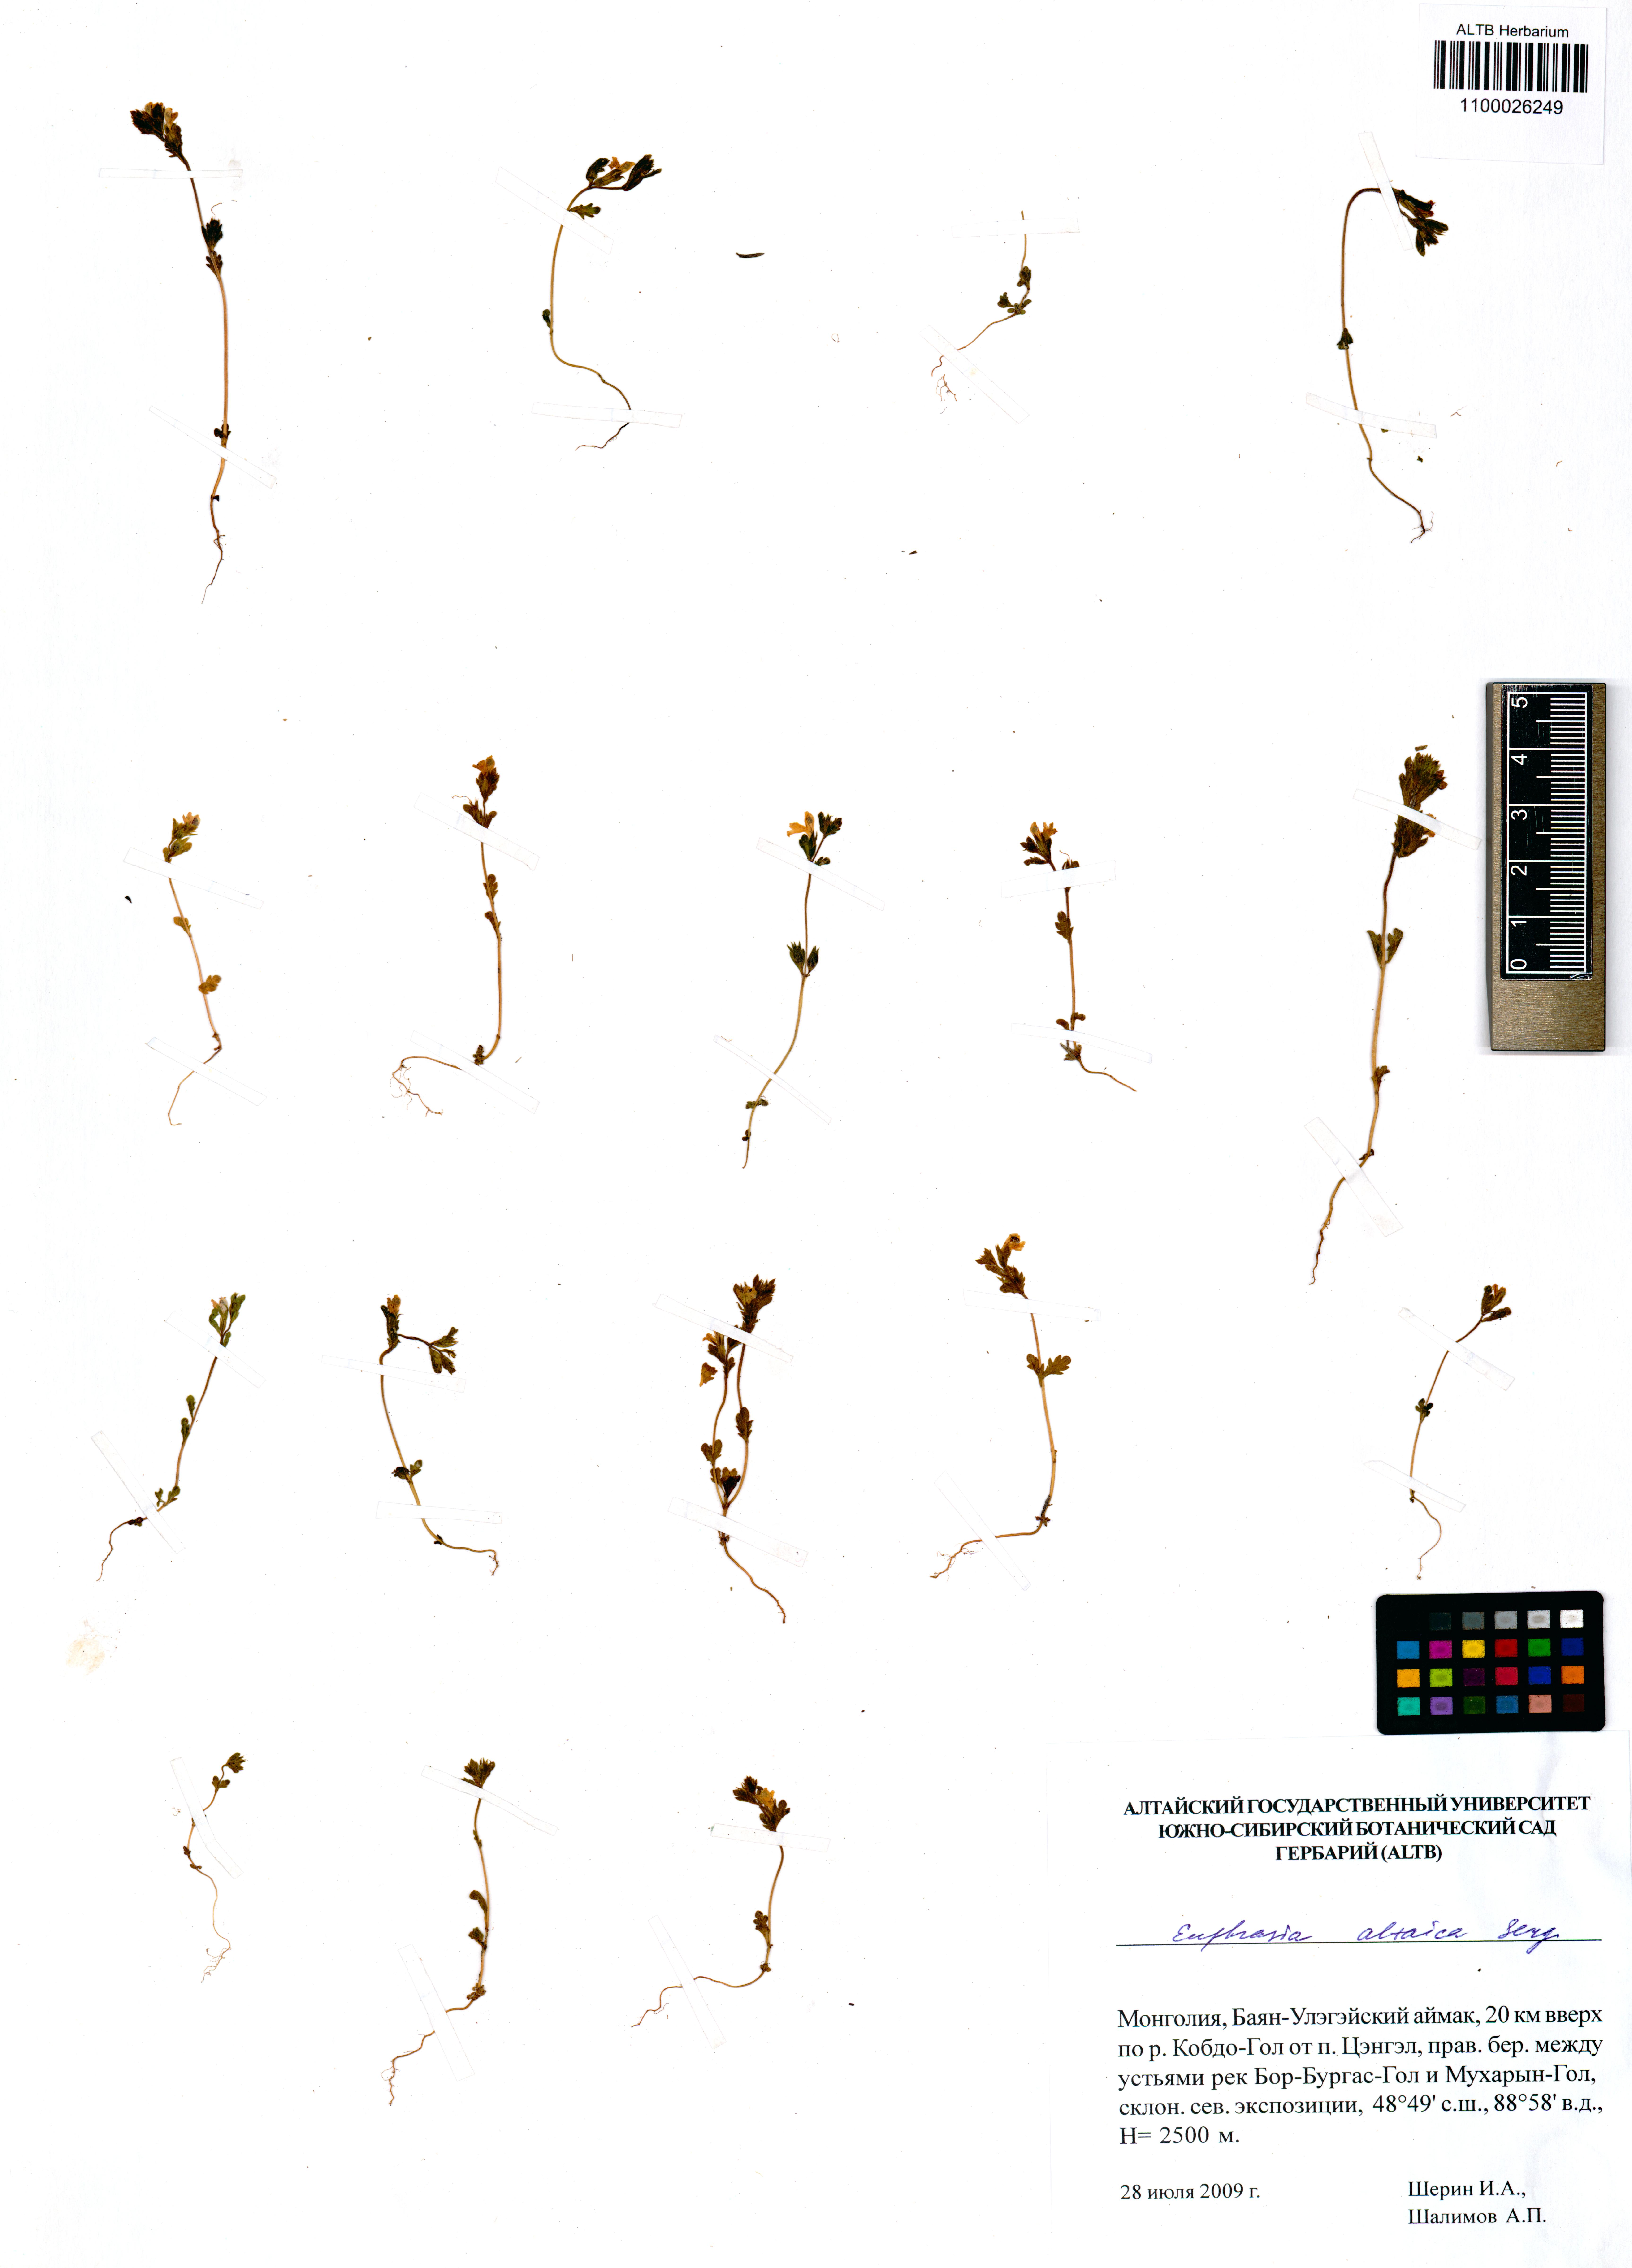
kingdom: Plantae
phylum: Tracheophyta
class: Magnoliopsida
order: Lamiales
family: Orobanchaceae
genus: Euphrasia
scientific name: Euphrasia altaica
